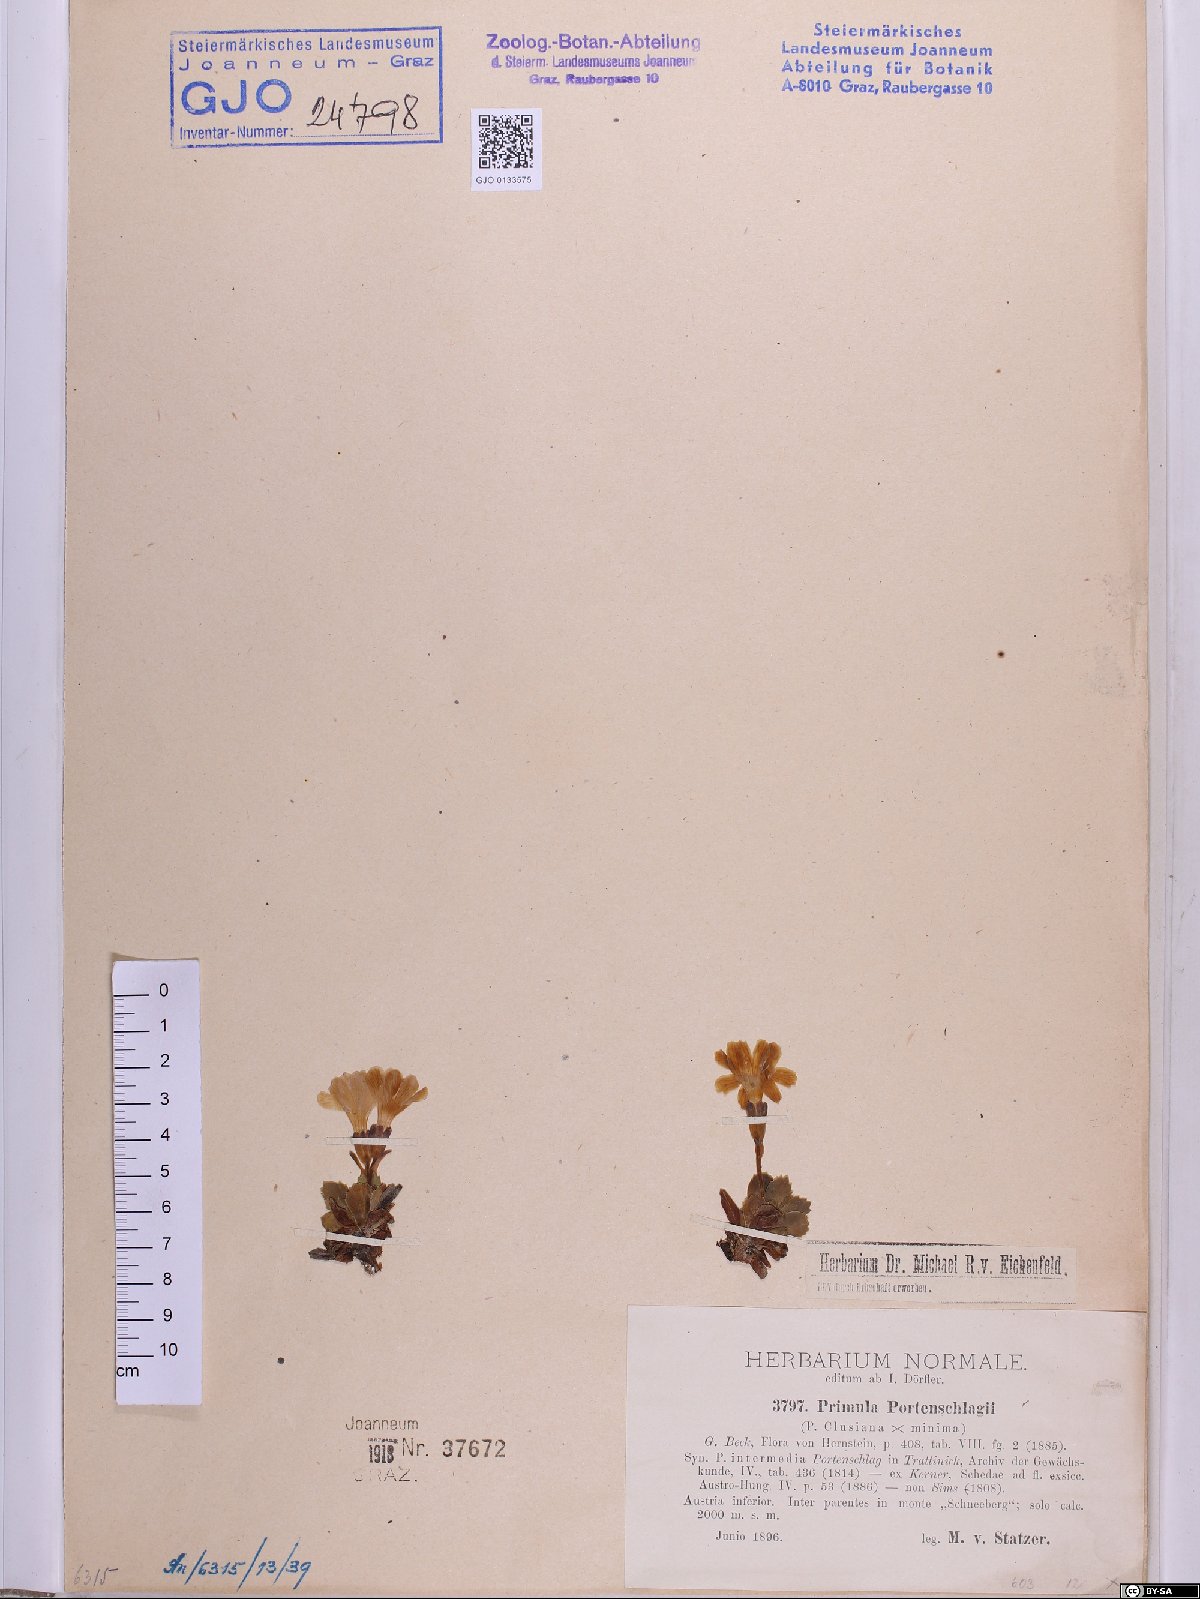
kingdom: Plantae
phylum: Tracheophyta
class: Magnoliopsida
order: Ericales
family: Primulaceae
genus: Primula
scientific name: Primula
